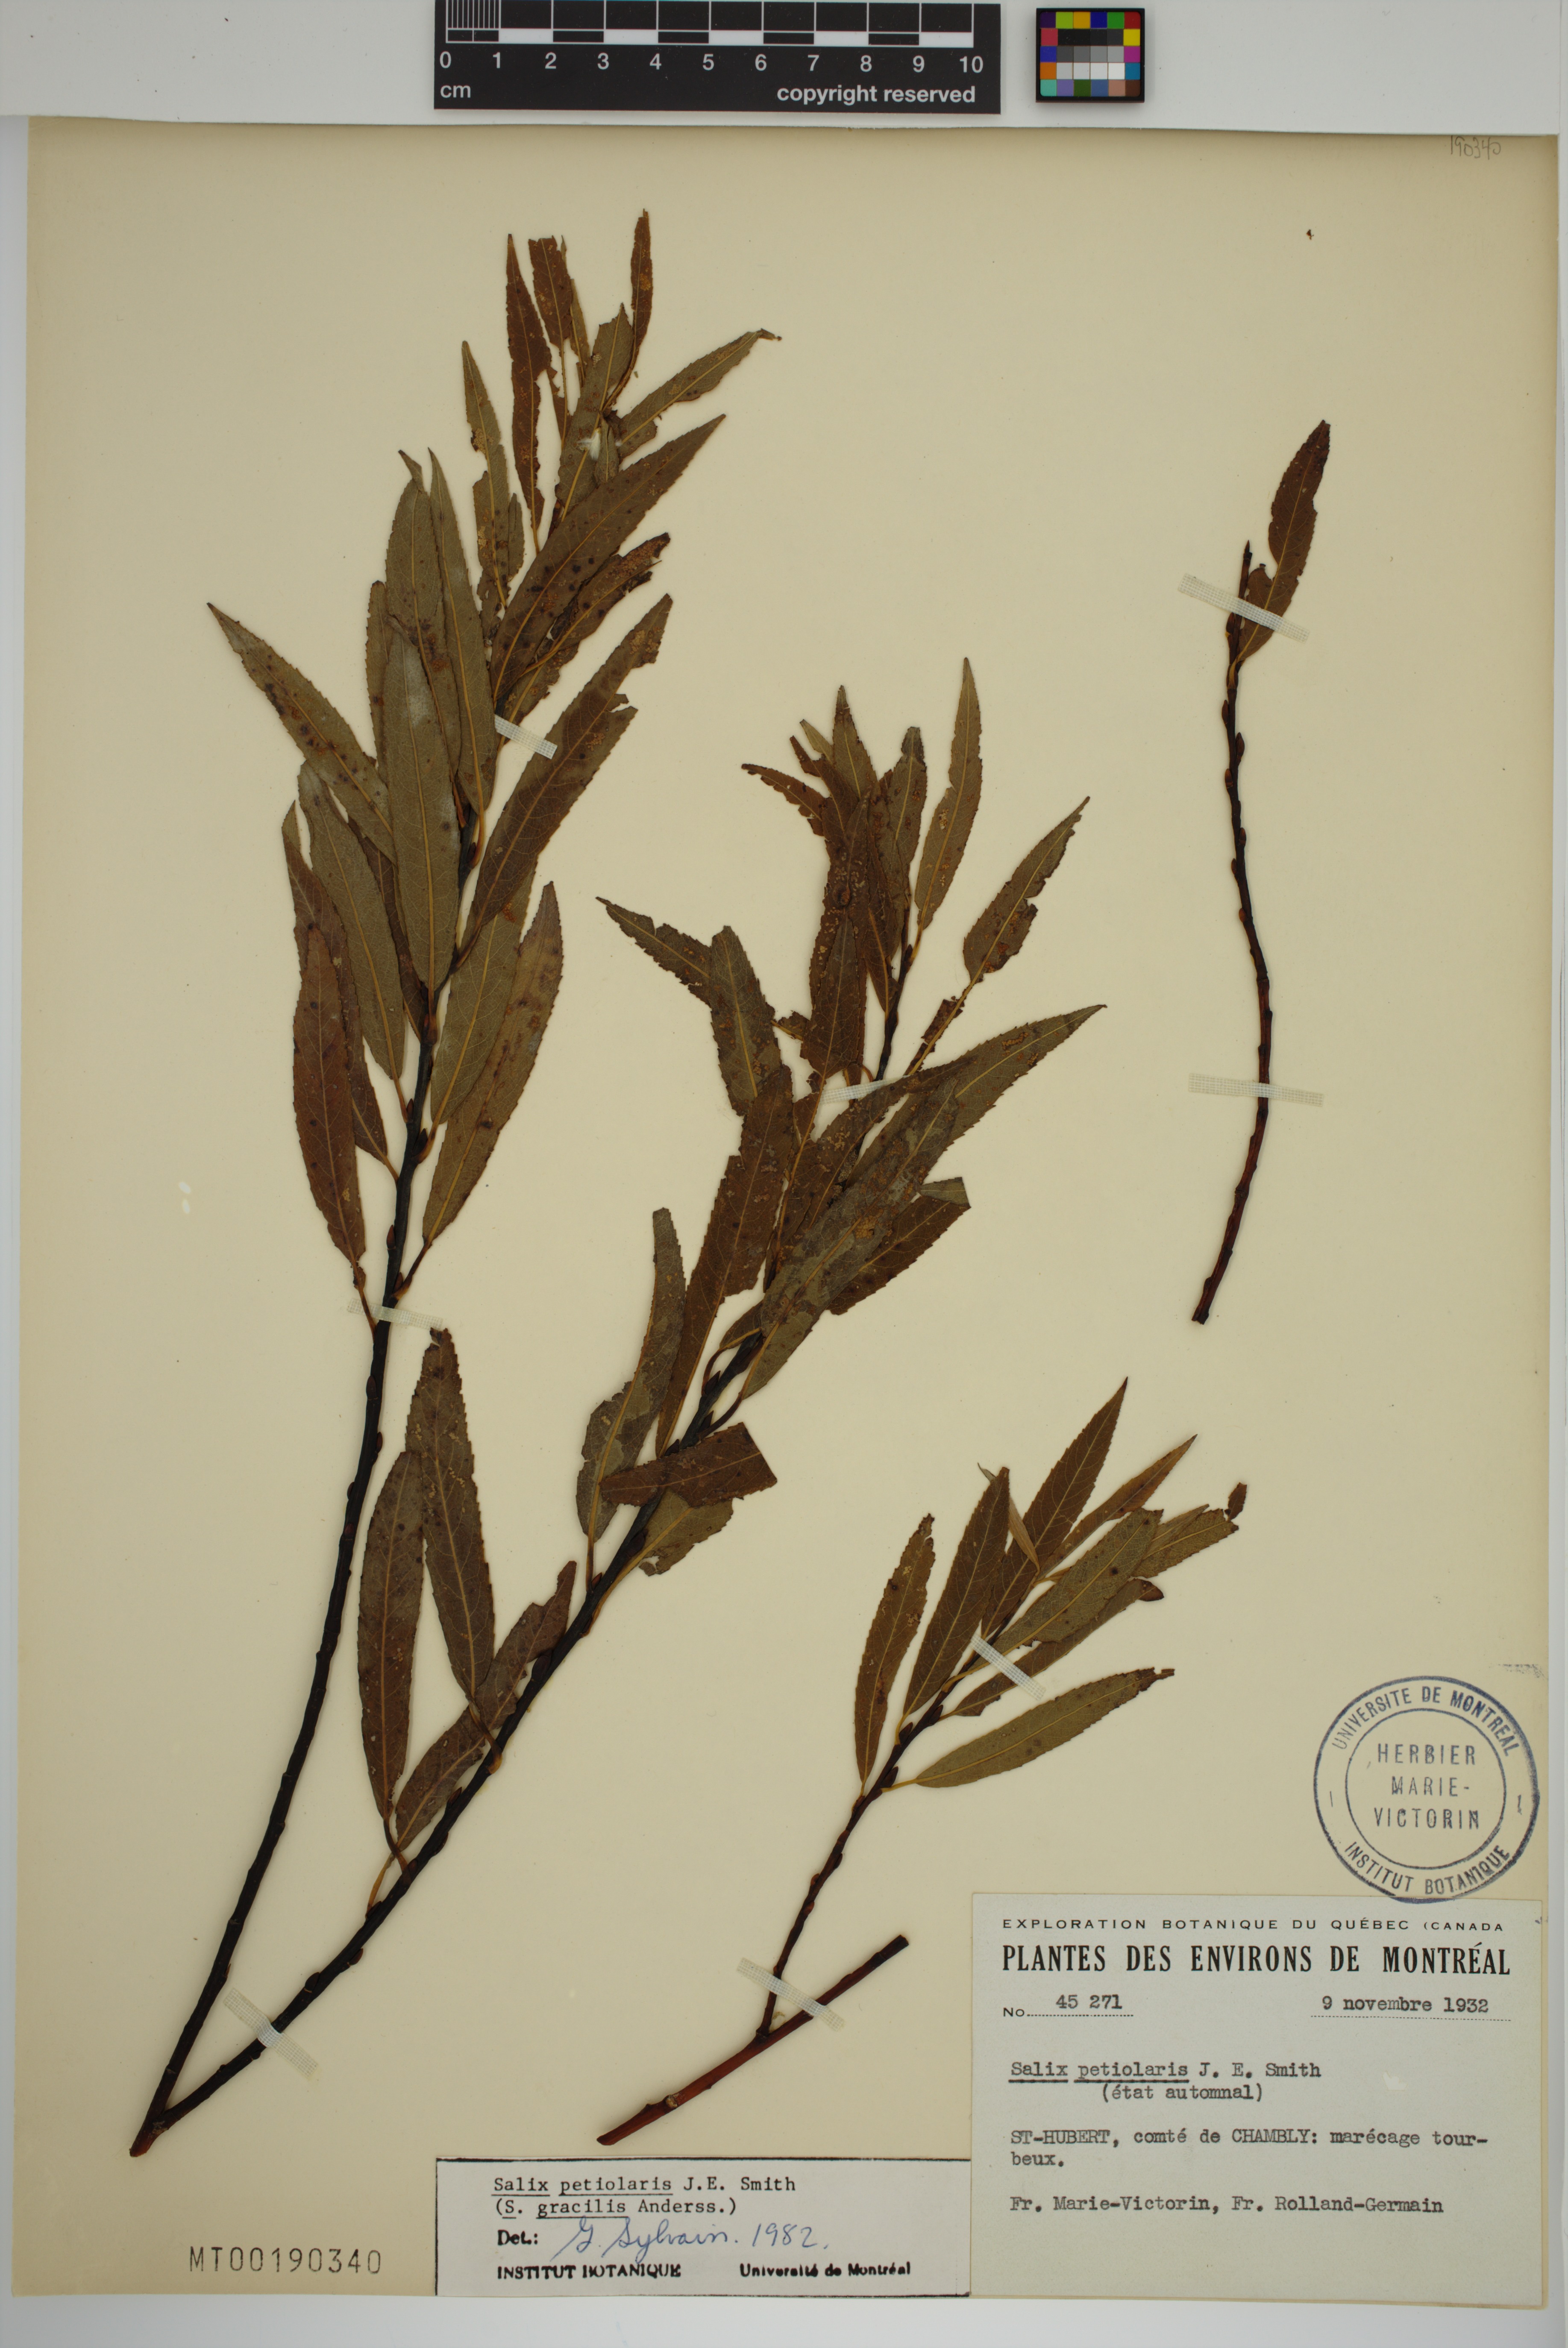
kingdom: Plantae
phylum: Tracheophyta
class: Magnoliopsida
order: Malpighiales
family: Salicaceae
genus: Salix
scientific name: Salix petiolaris
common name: Slender willow
